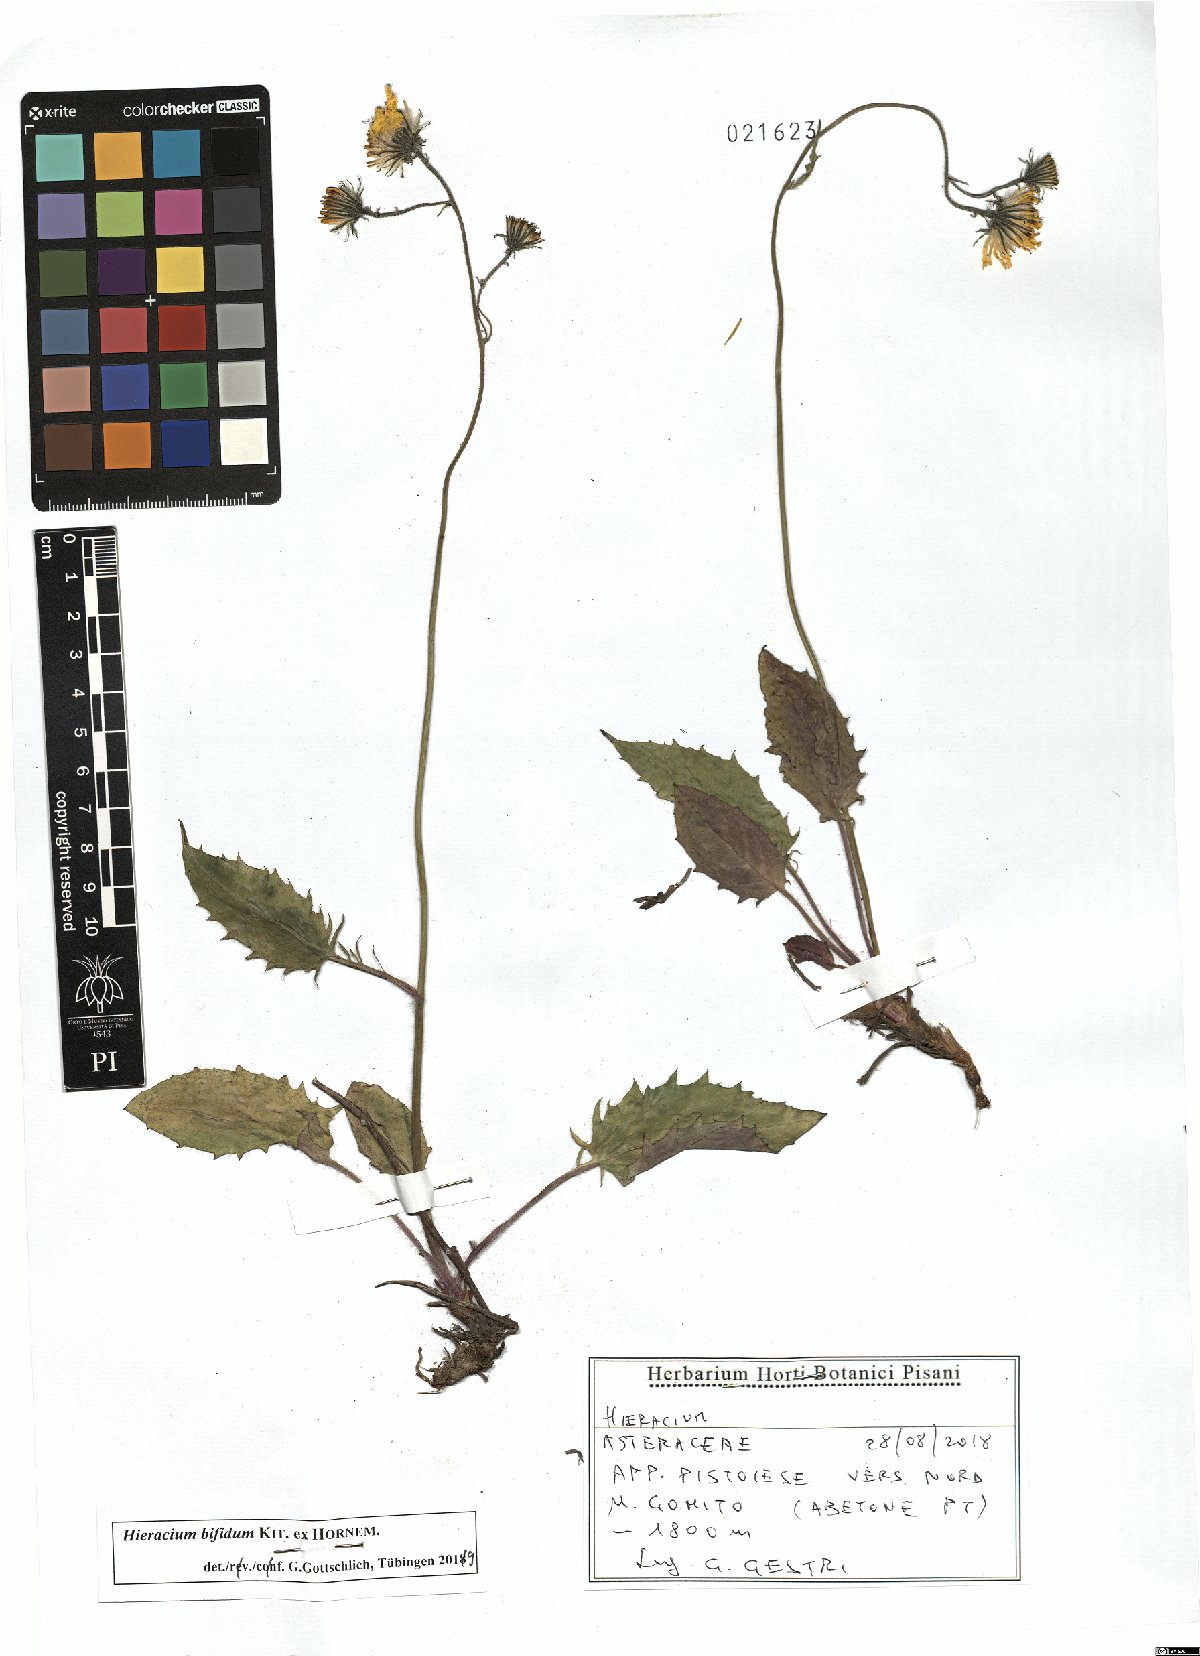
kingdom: Plantae
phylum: Tracheophyta
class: Magnoliopsida
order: Asterales
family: Asteraceae
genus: Hieracium
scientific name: Hieracium bifidum
